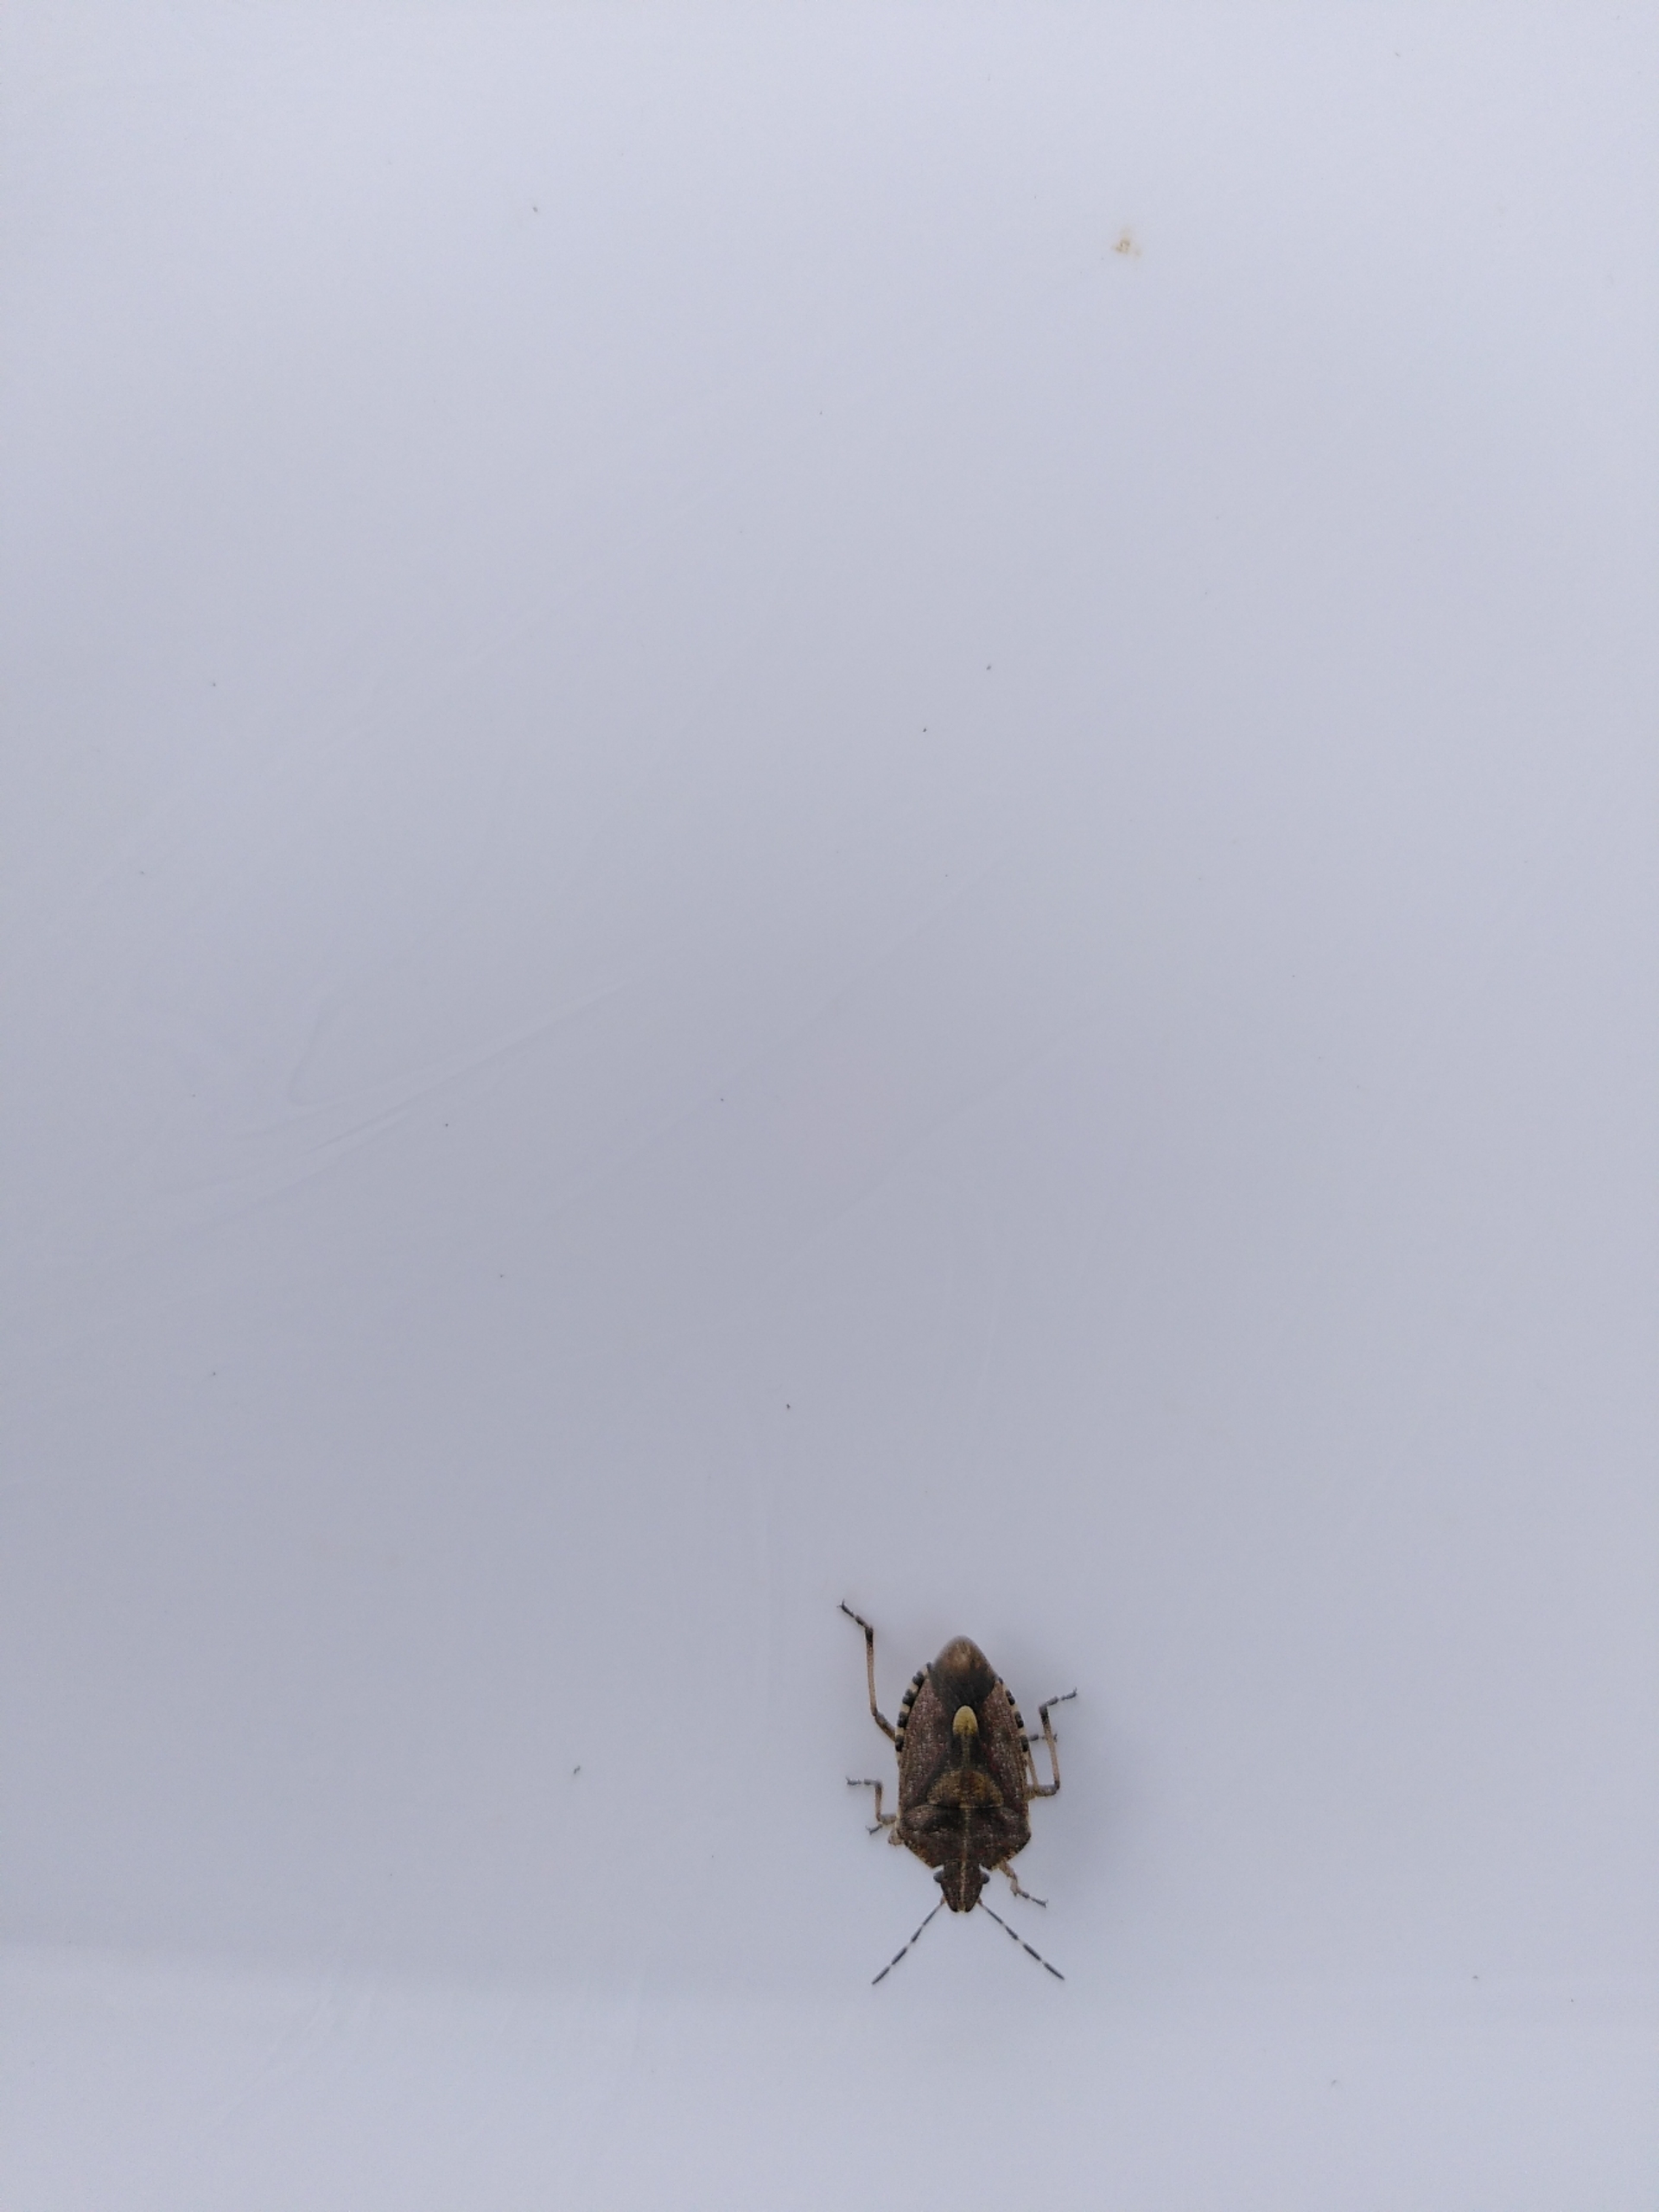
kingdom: Animalia
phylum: Arthropoda
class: Insecta
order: Hemiptera
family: Pentatomidae
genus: Dolycoris
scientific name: Dolycoris baccarum
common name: Almindelig bærtæge
